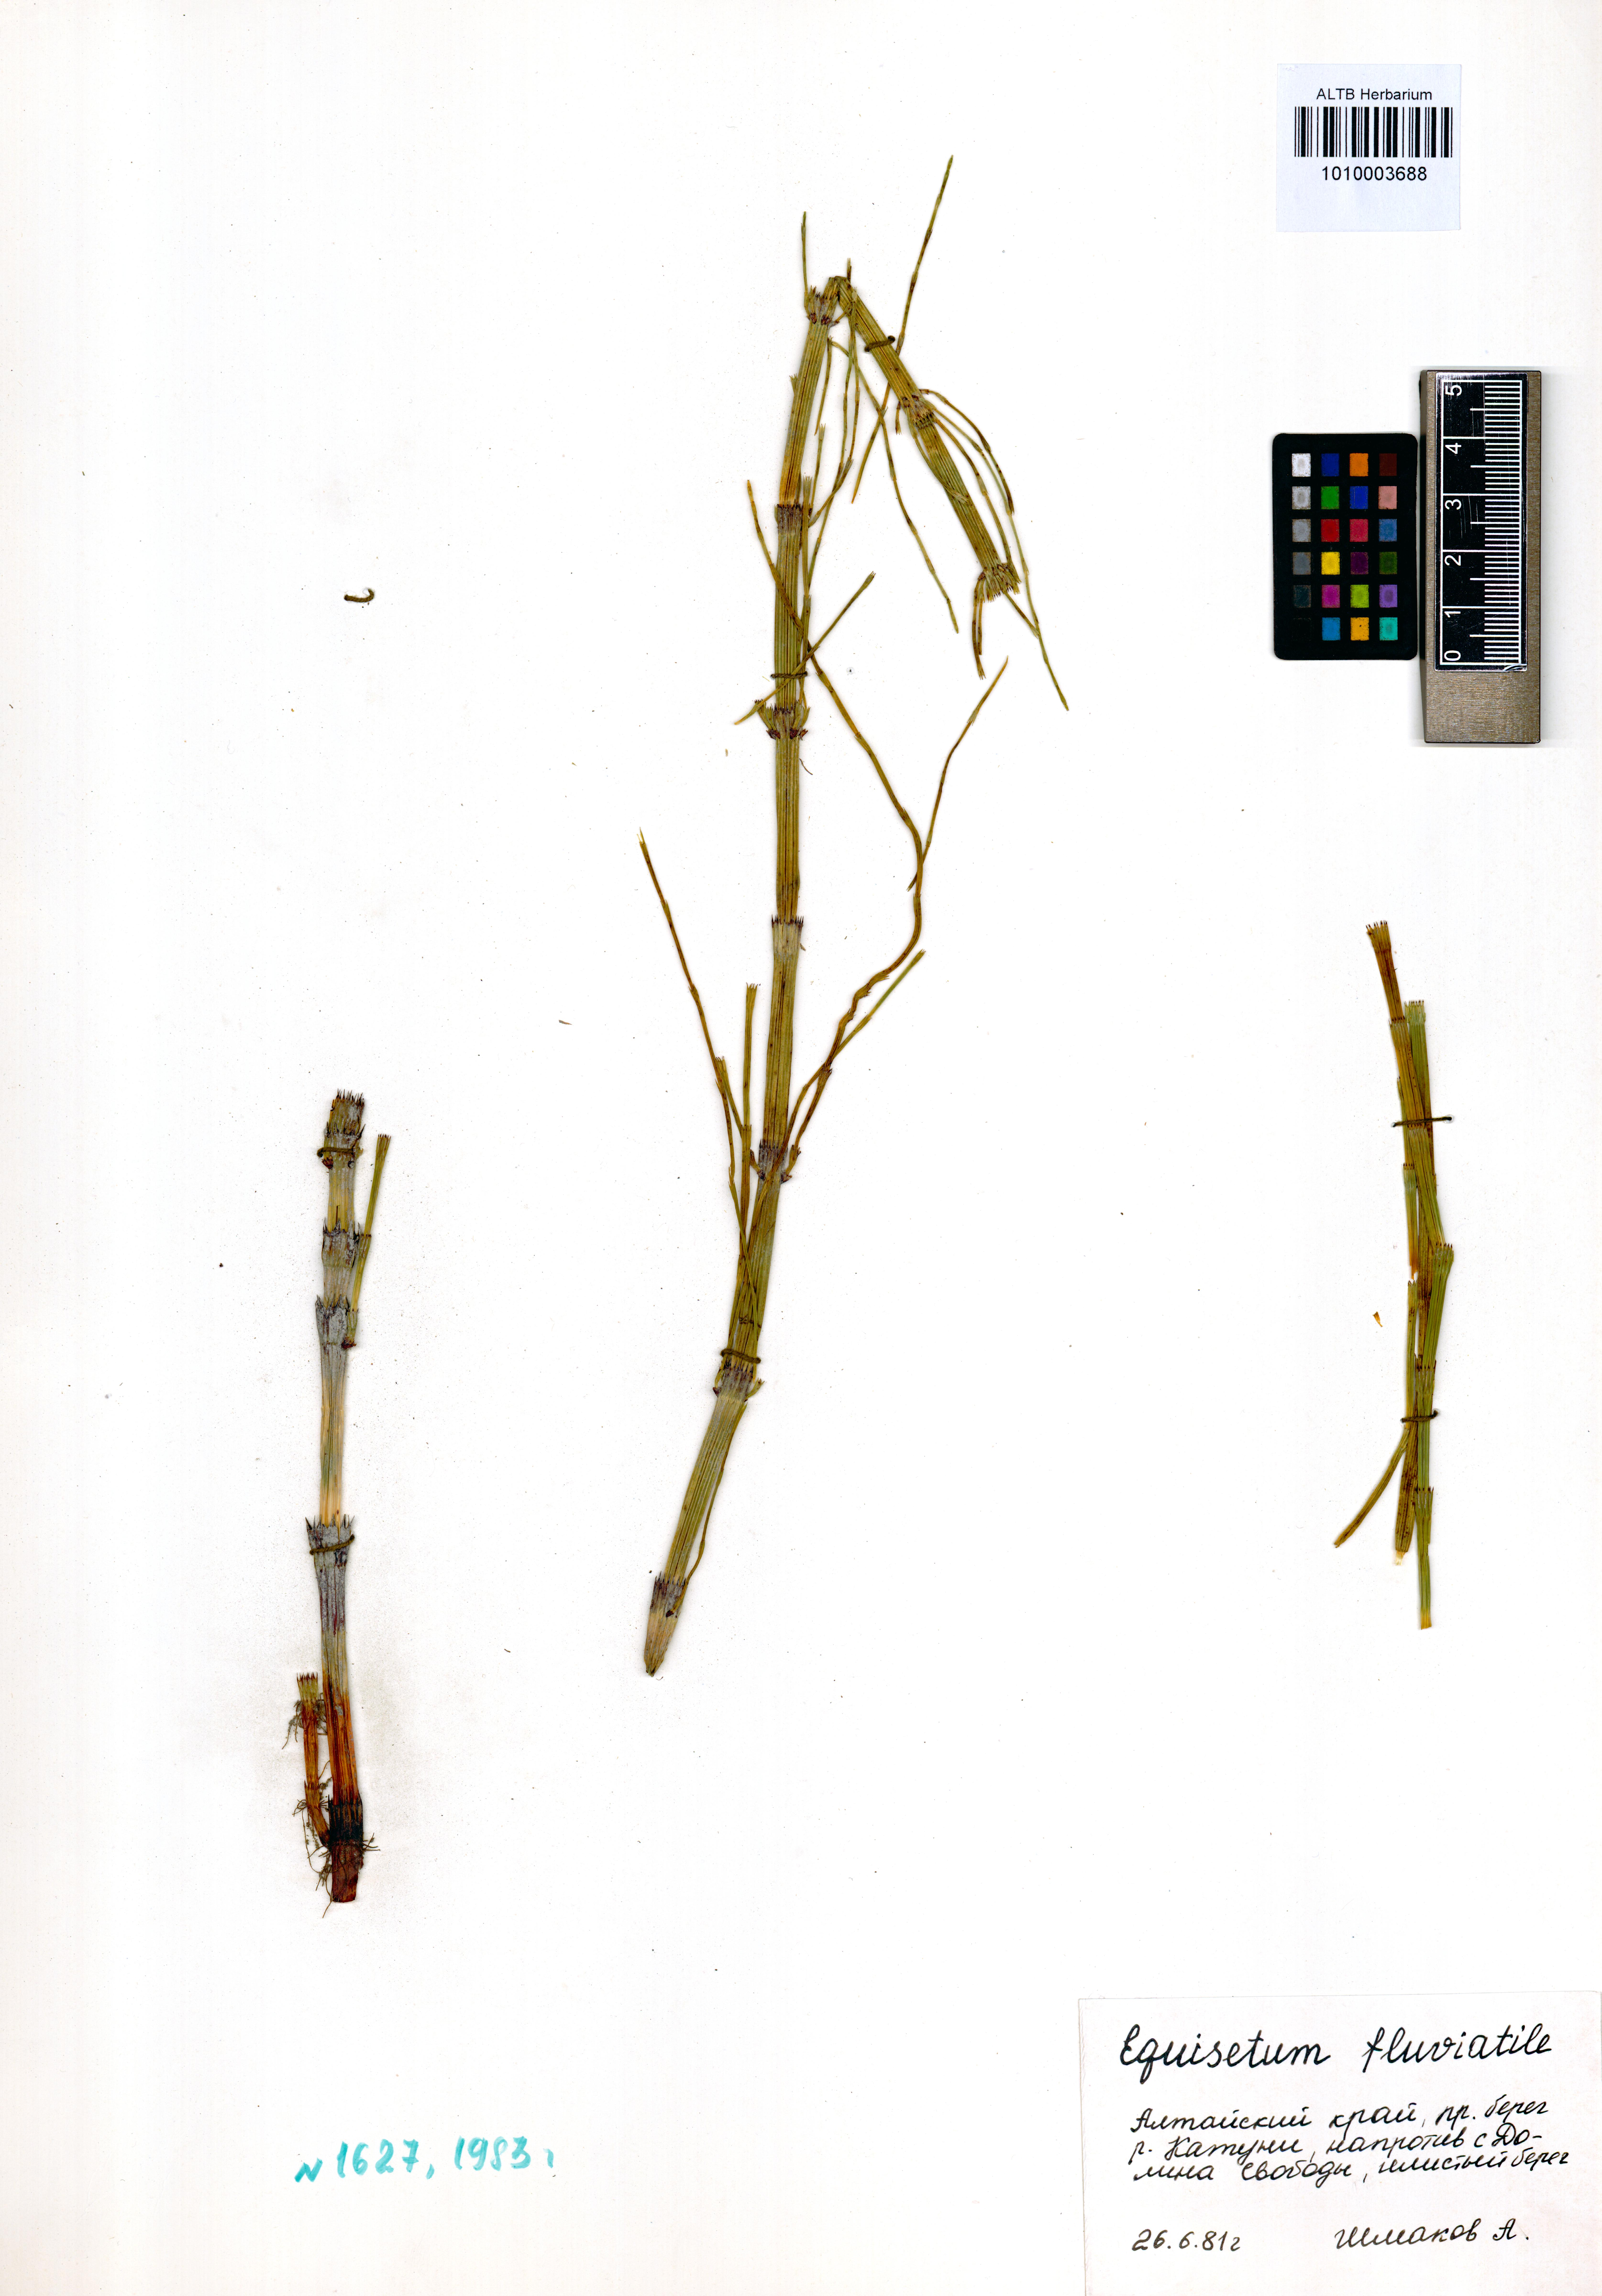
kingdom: Plantae
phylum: Tracheophyta
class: Polypodiopsida
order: Equisetales
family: Equisetaceae
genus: Equisetum
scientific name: Equisetum fluviatile
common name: Water horsetail
